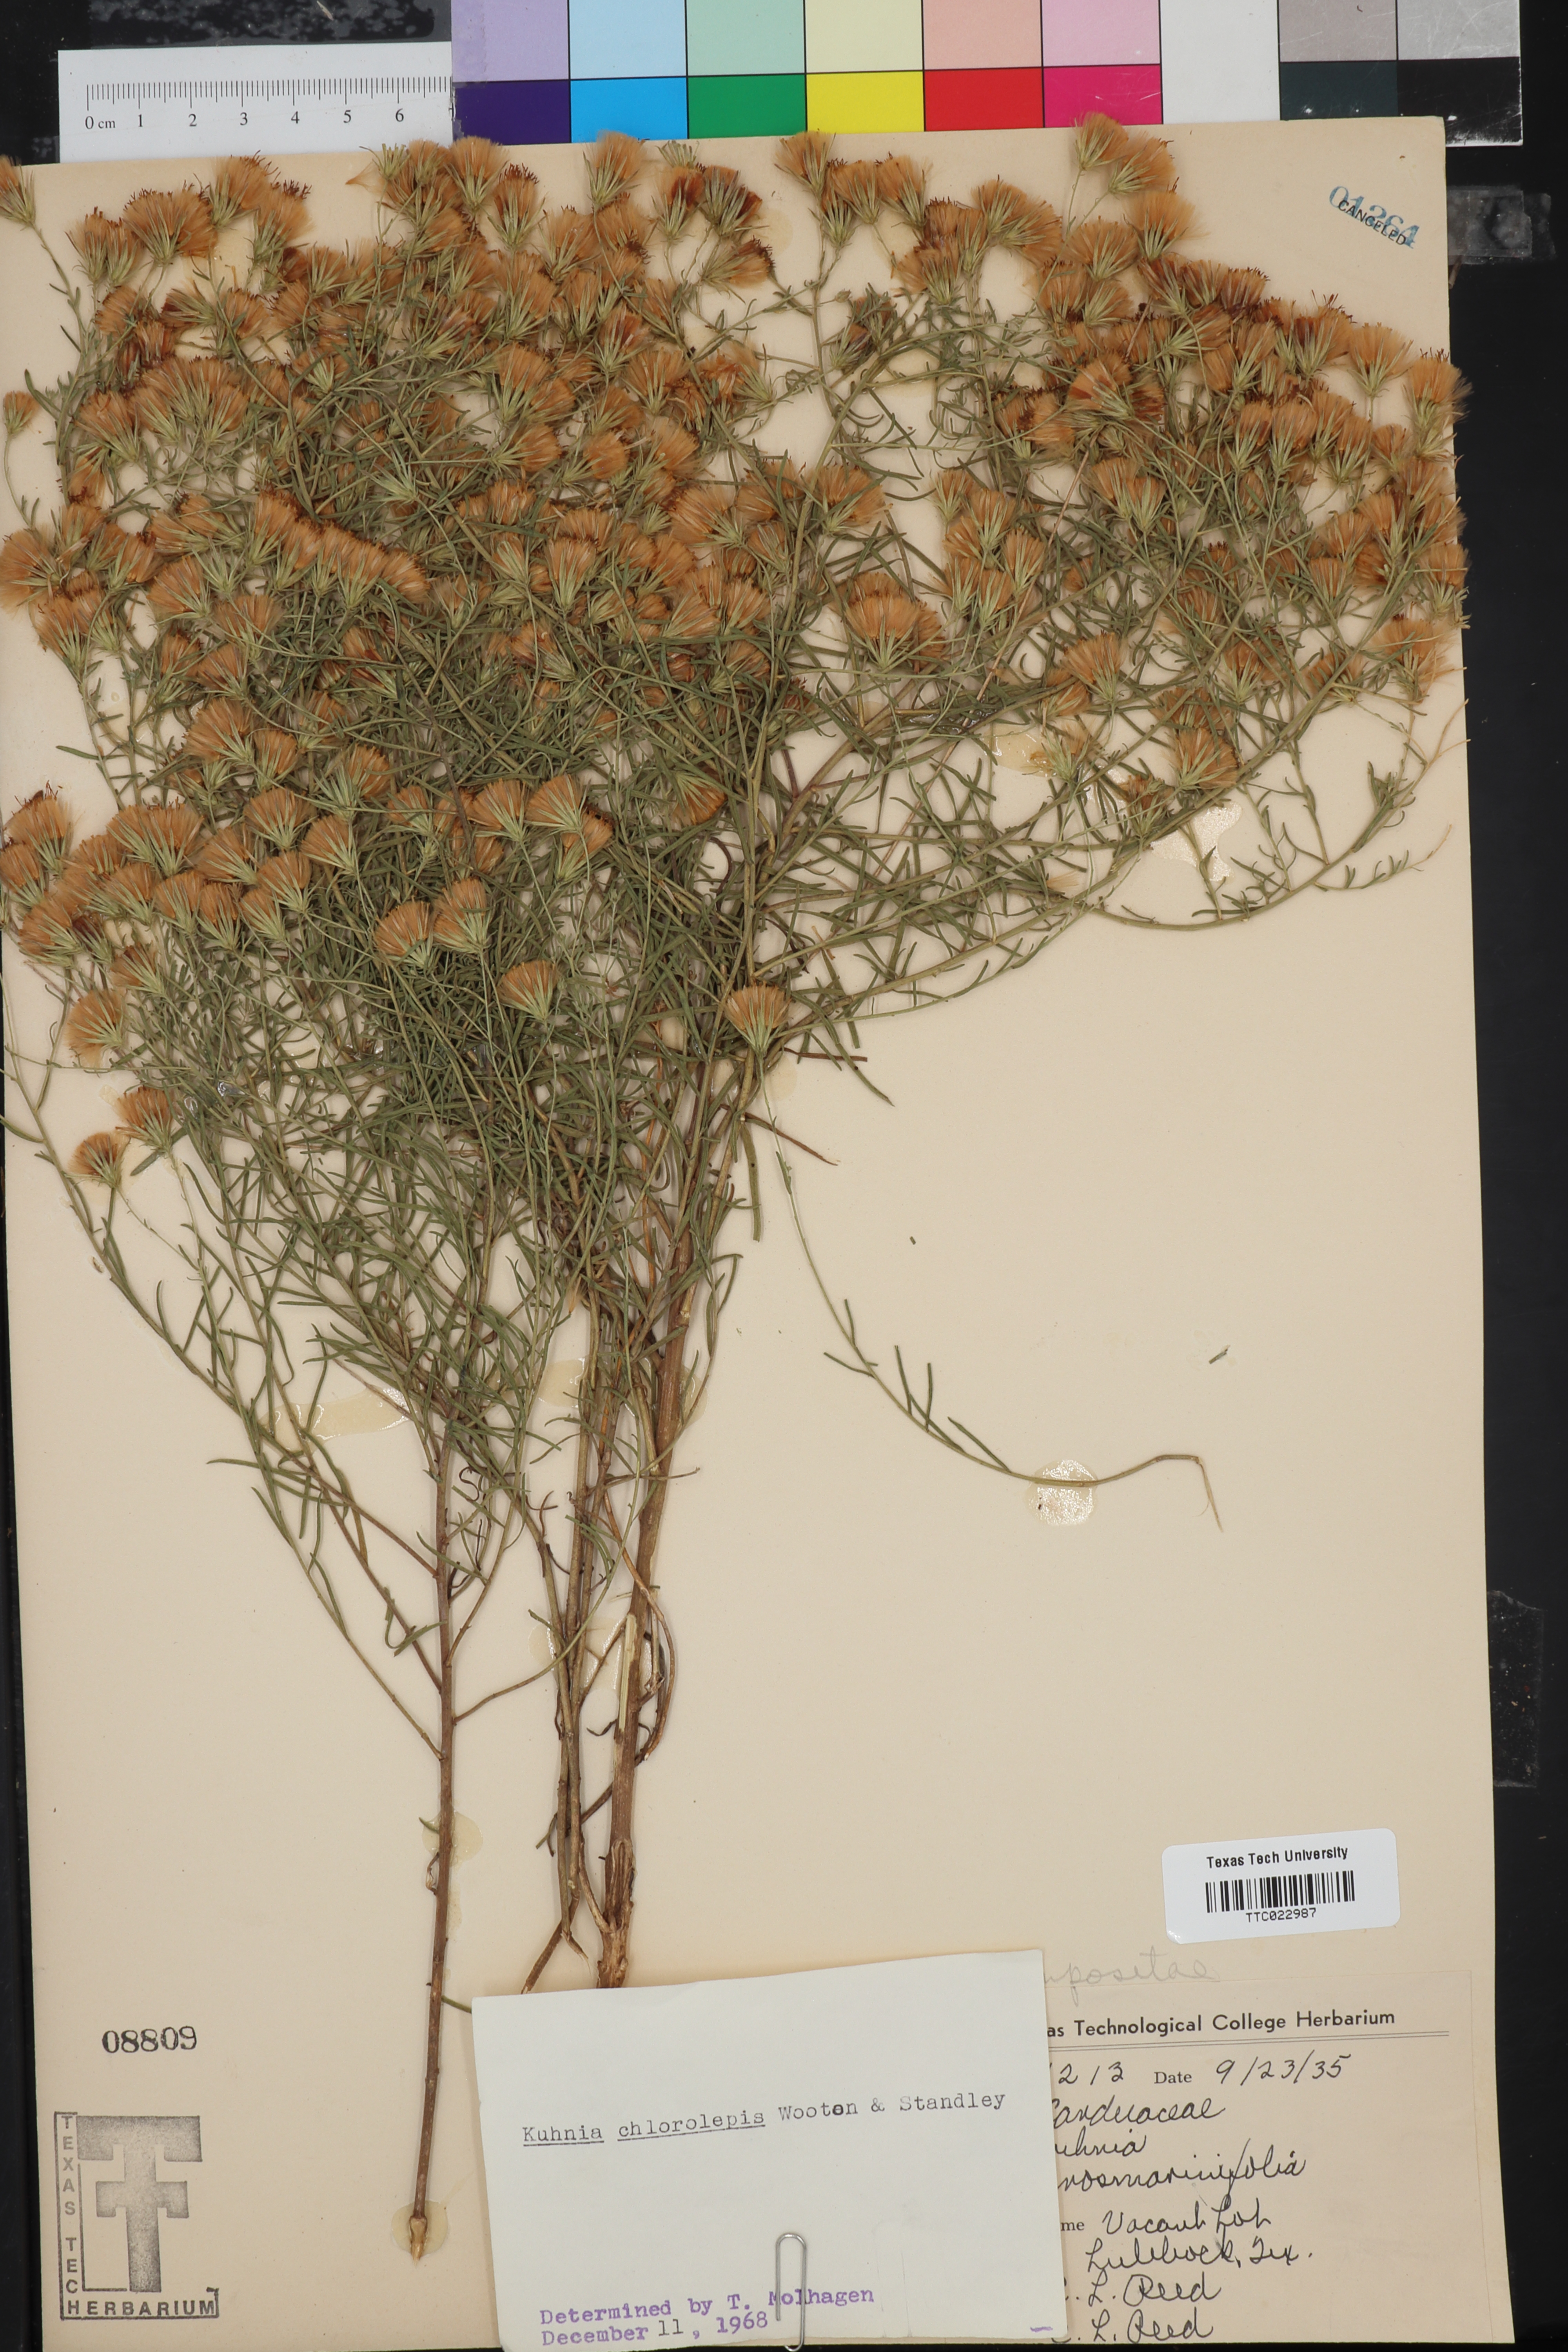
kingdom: Plantae
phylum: Tracheophyta
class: Magnoliopsida
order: Asterales
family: Asteraceae
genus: Brickellia
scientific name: Brickellia leptophylla
